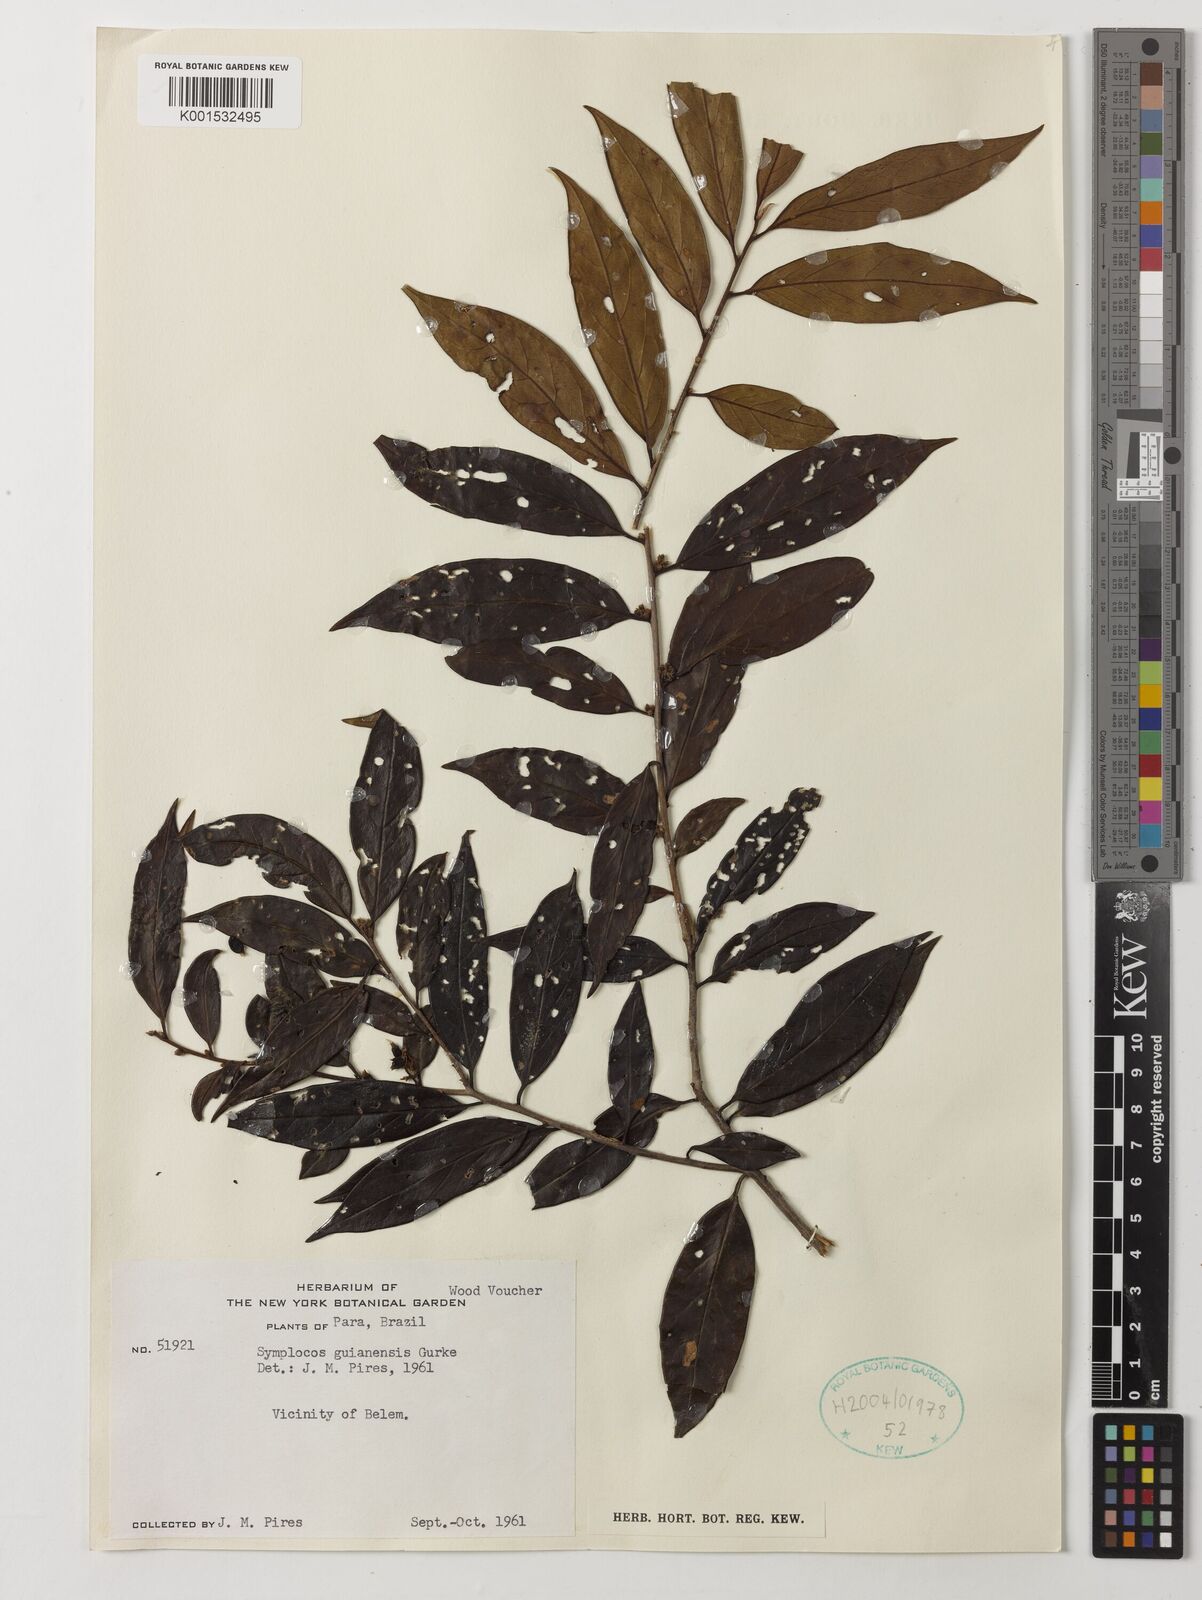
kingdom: Plantae
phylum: Tracheophyta
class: Magnoliopsida
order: Ericales
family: Symplocaceae
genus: Symplocos
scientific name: Symplocos guianensis
